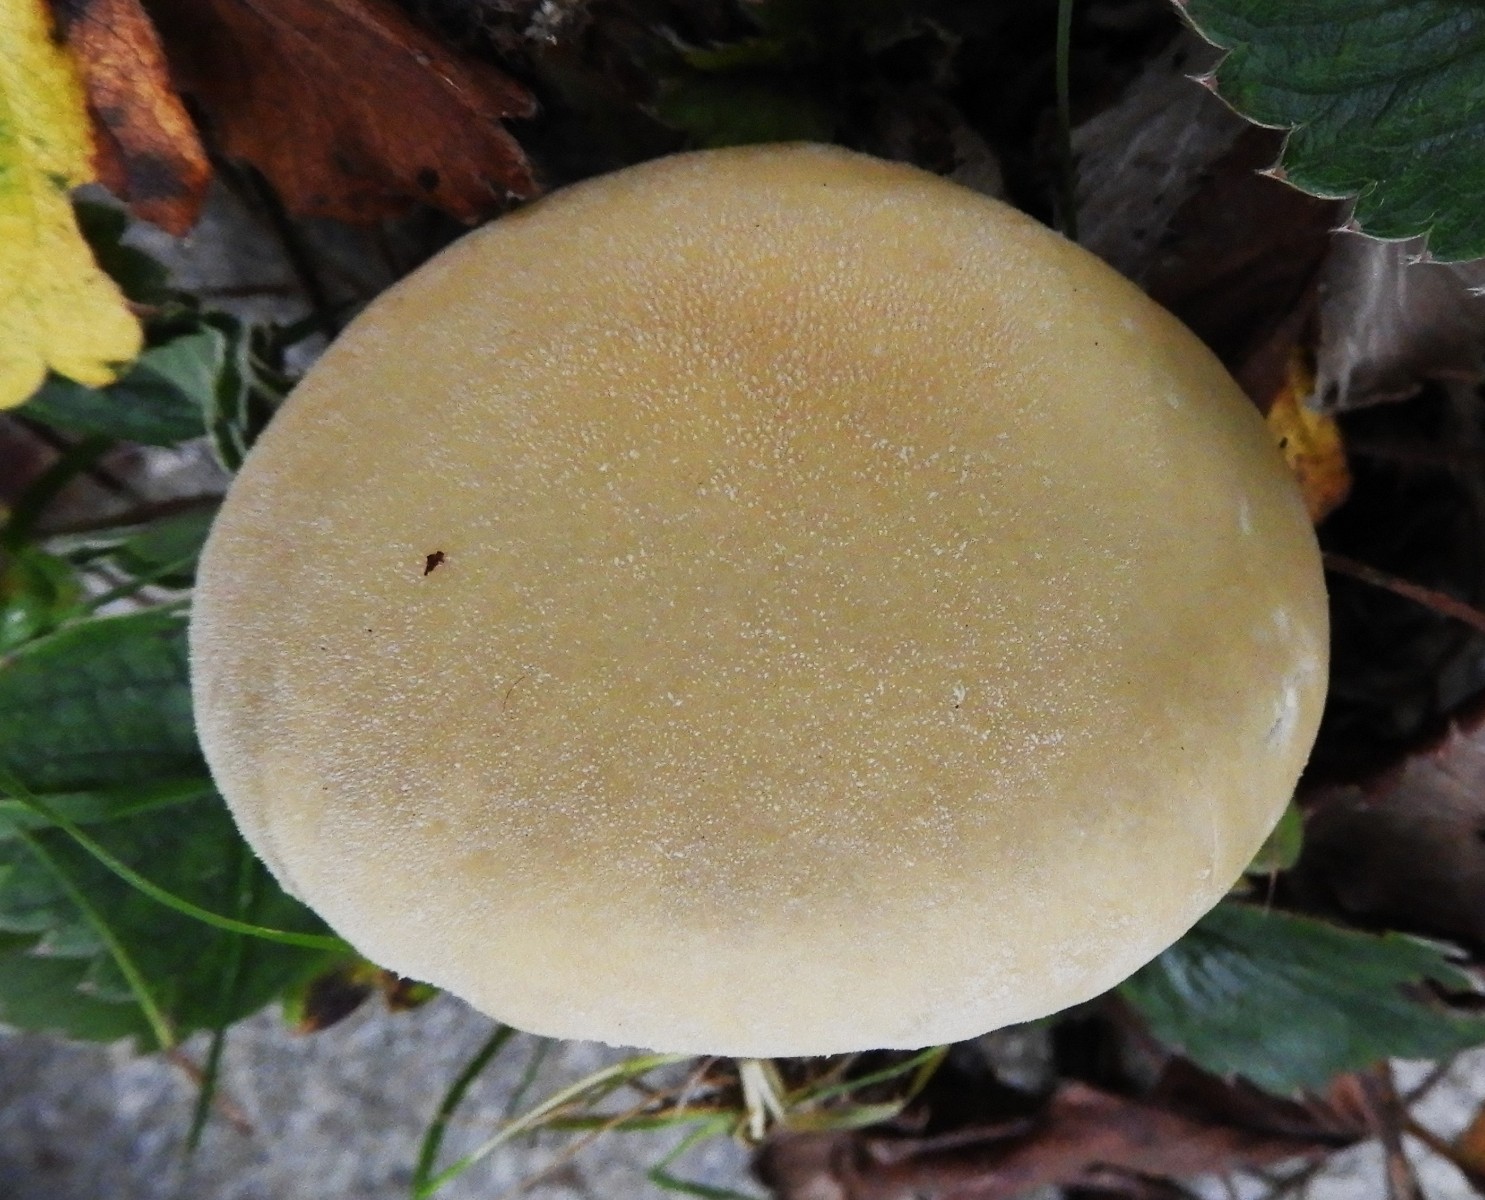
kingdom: Fungi
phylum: Basidiomycota
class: Agaricomycetes
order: Agaricales
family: Lycoperdaceae
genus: Lycoperdon
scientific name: Lycoperdon pratense
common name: flad støvbold
